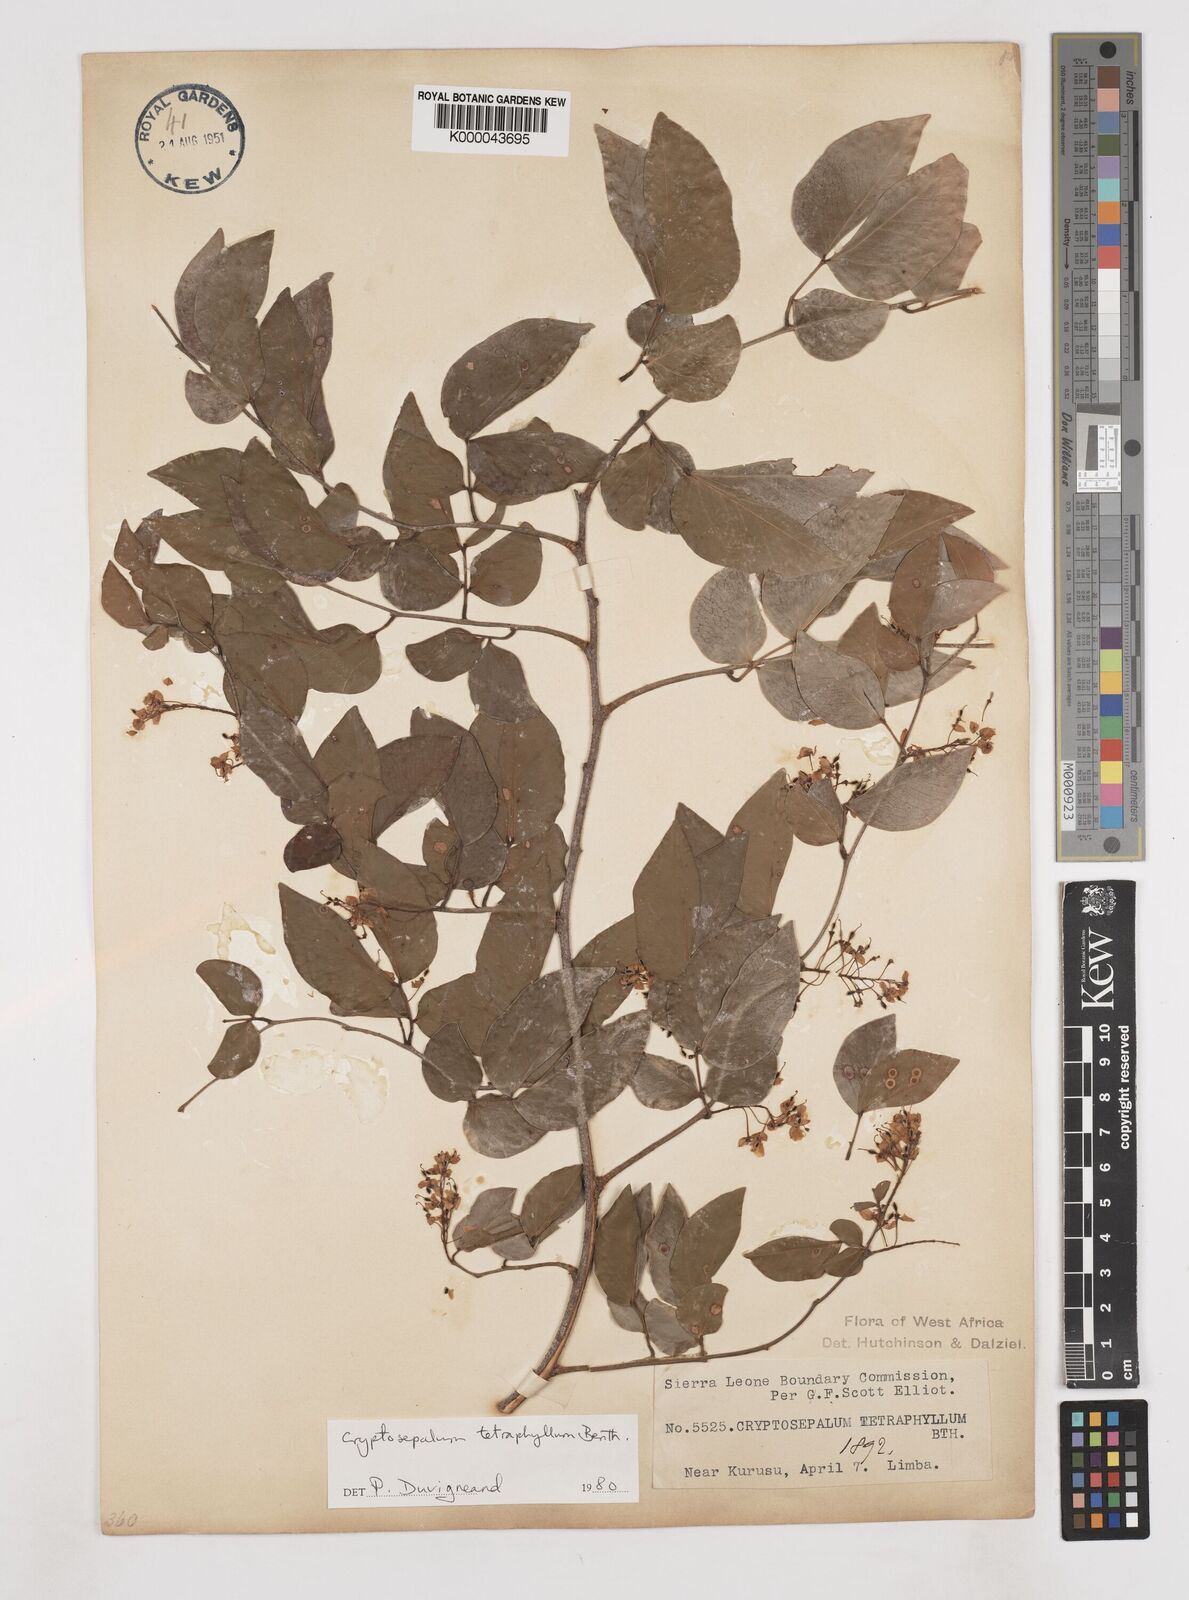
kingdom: Plantae
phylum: Tracheophyta
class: Magnoliopsida
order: Fabales
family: Fabaceae
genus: Cryptosepalum
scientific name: Cryptosepalum tetraphyllum
